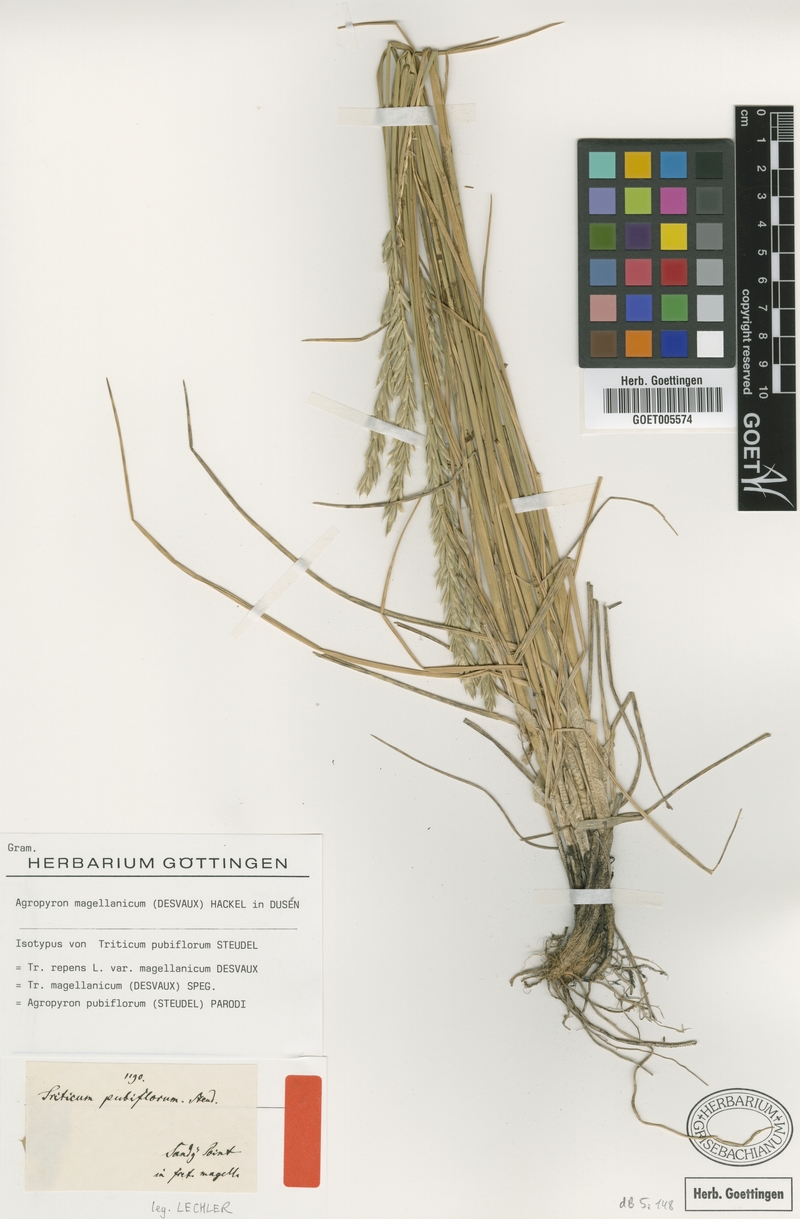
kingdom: Plantae
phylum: Tracheophyta
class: Liliopsida
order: Poales
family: Poaceae
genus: Elymus
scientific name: Elymus magellanicus
